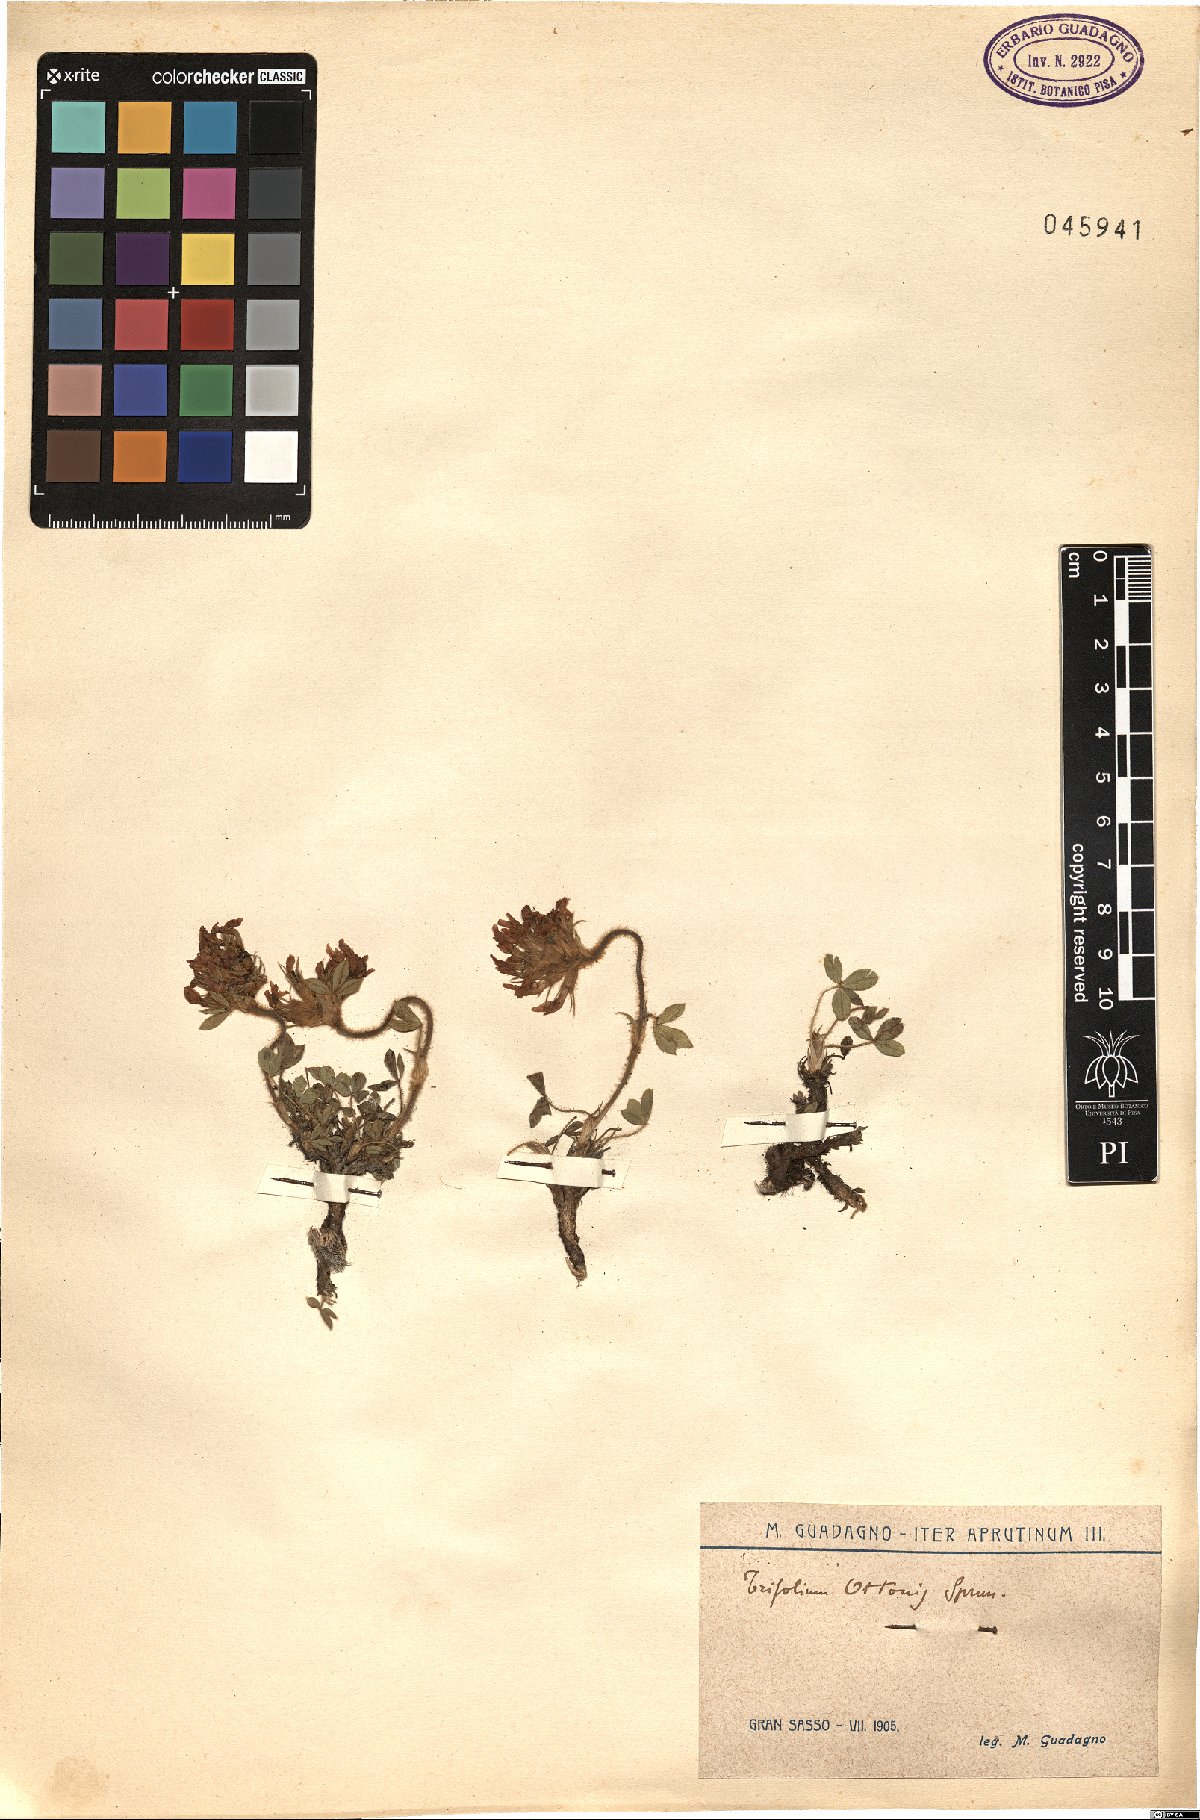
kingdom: Plantae
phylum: Tracheophyta
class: Magnoliopsida
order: Fabales
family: Fabaceae
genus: Trifolium
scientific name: Trifolium noricum
